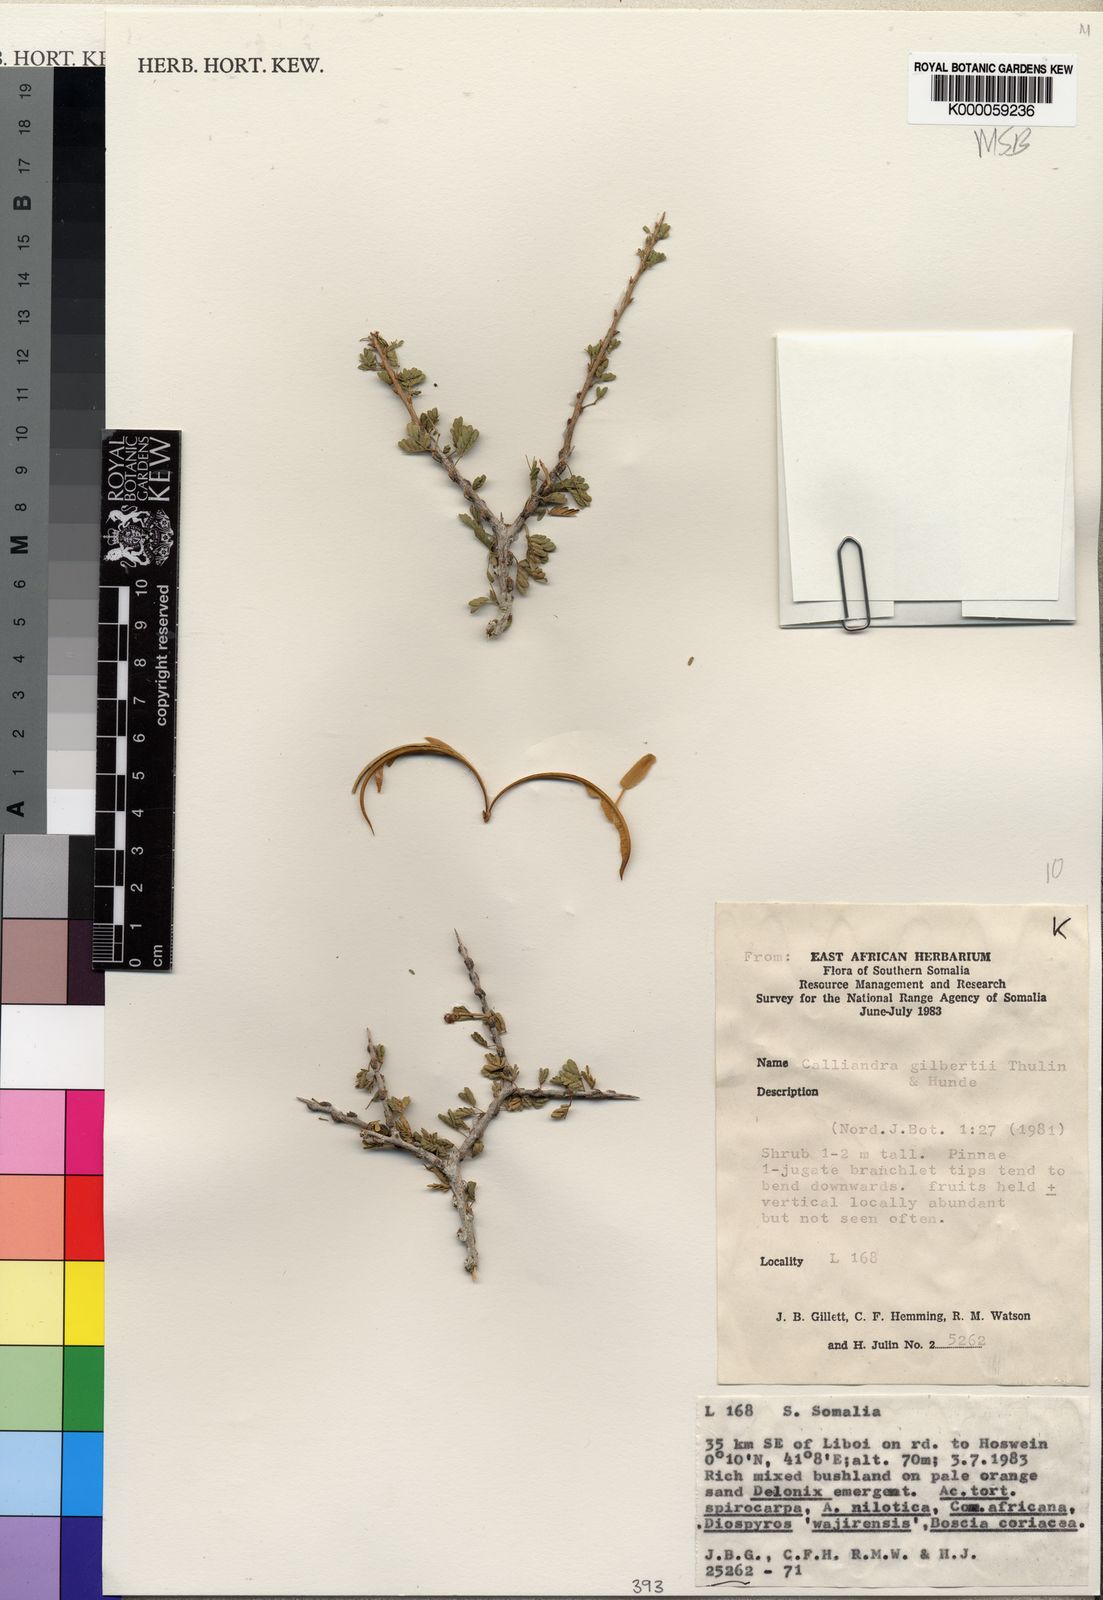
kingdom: Plantae
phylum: Tracheophyta
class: Magnoliopsida
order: Fabales
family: Fabaceae
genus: Afrocalliandra
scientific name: Afrocalliandra gilbertii
